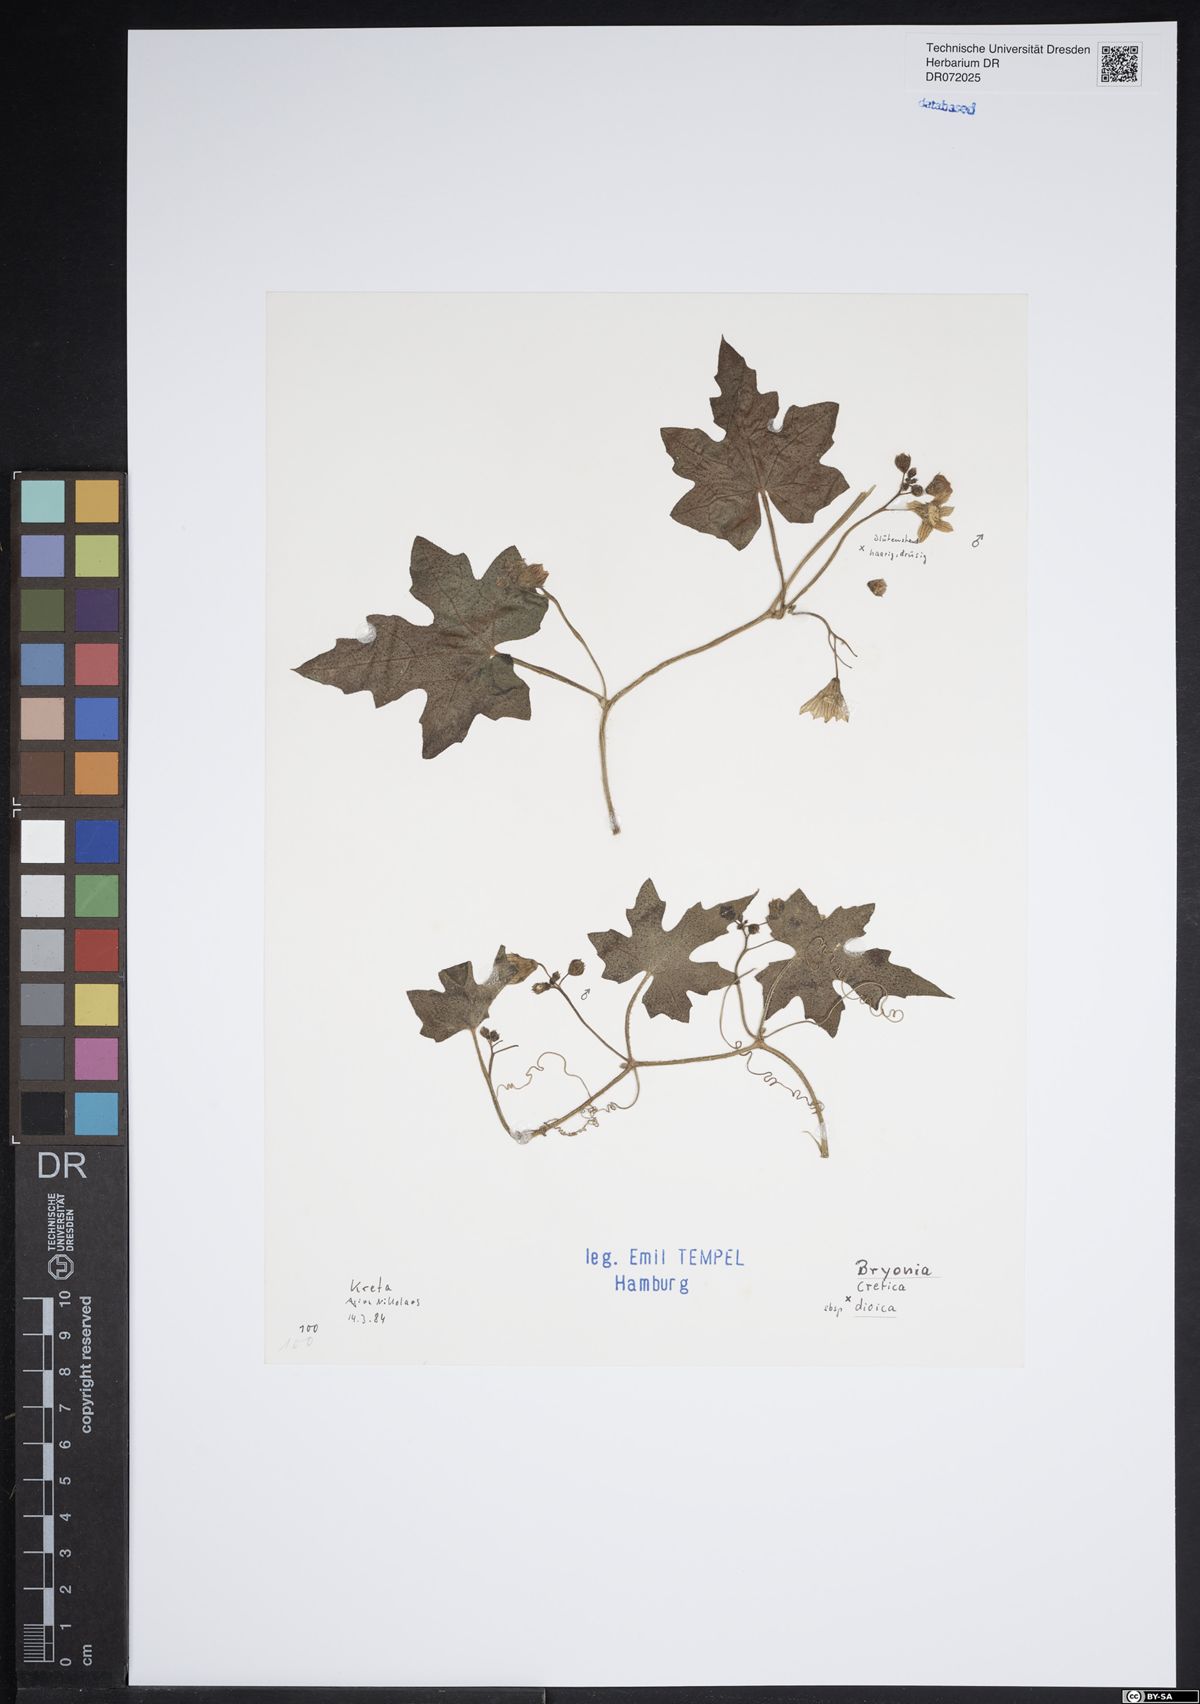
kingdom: Plantae
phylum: Tracheophyta
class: Magnoliopsida
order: Cucurbitales
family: Cucurbitaceae
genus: Bryonia
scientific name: Bryonia dioica
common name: White bryony
